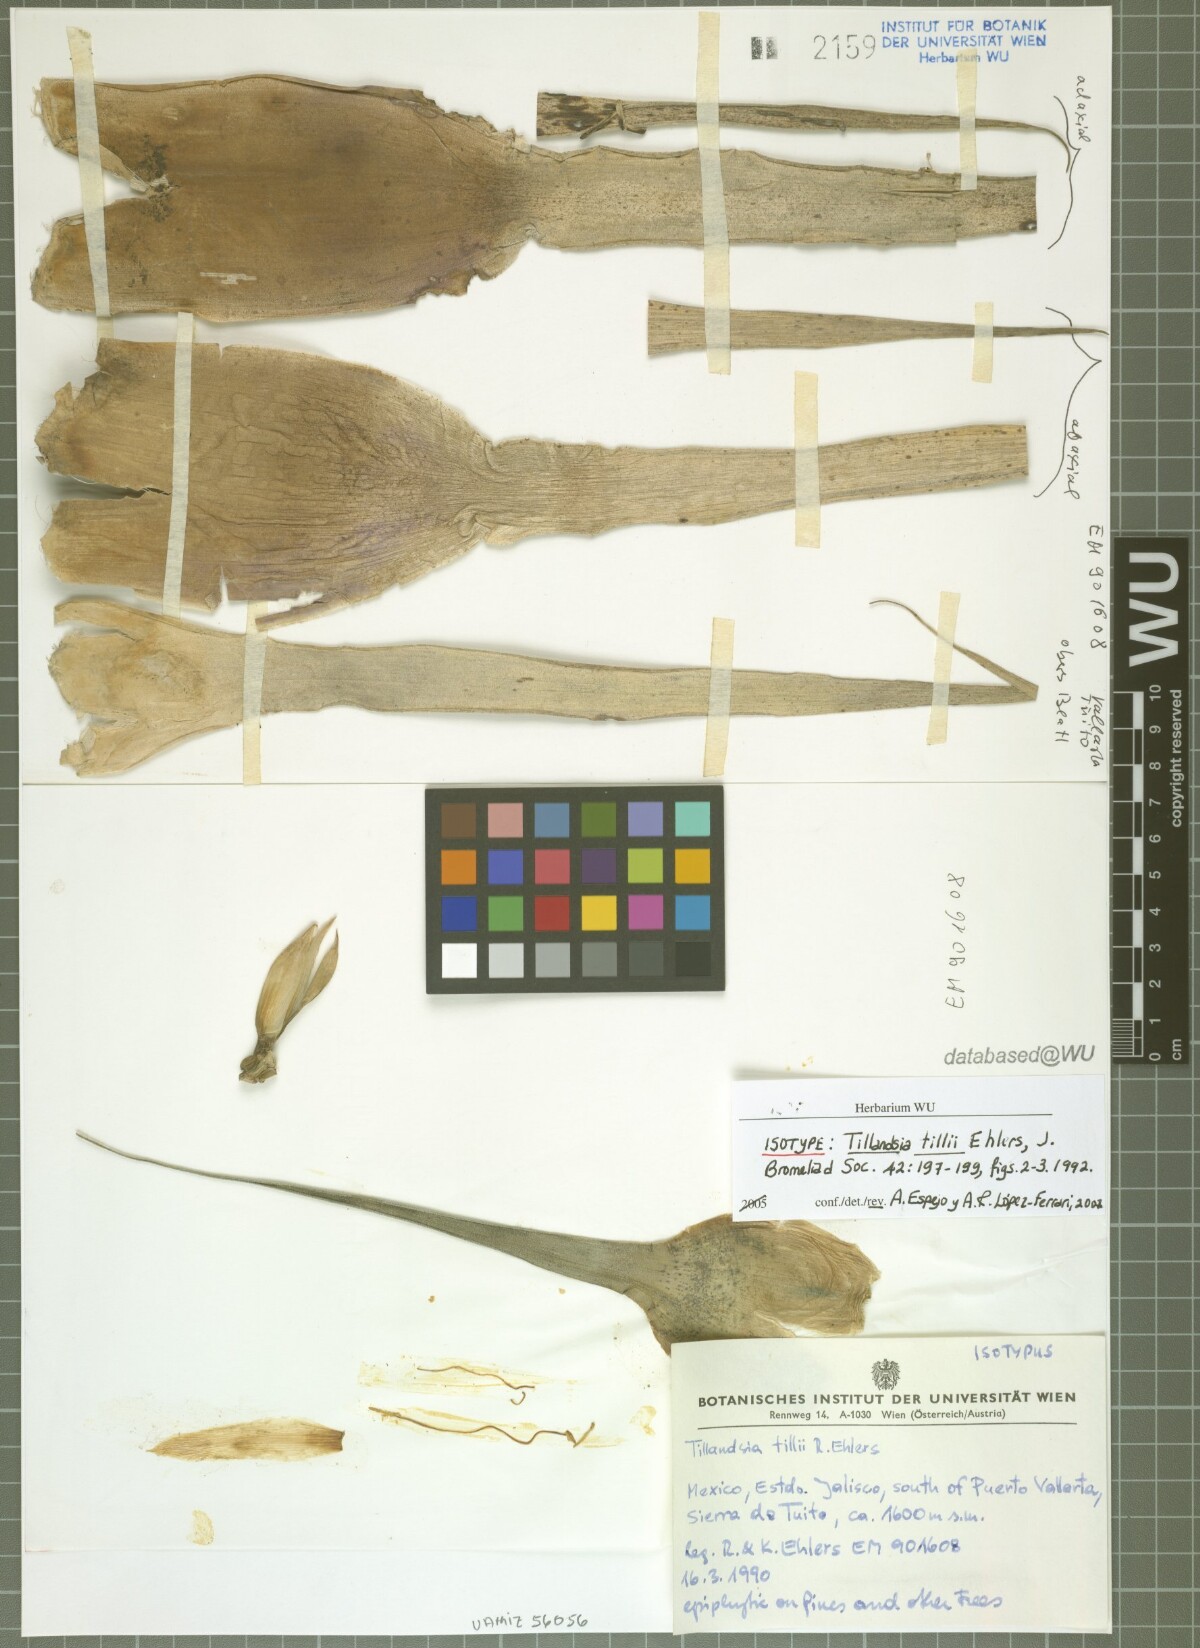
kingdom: Plantae
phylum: Tracheophyta
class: Liliopsida
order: Poales
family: Bromeliaceae
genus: Tillandsia
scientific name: Tillandsia tillii
